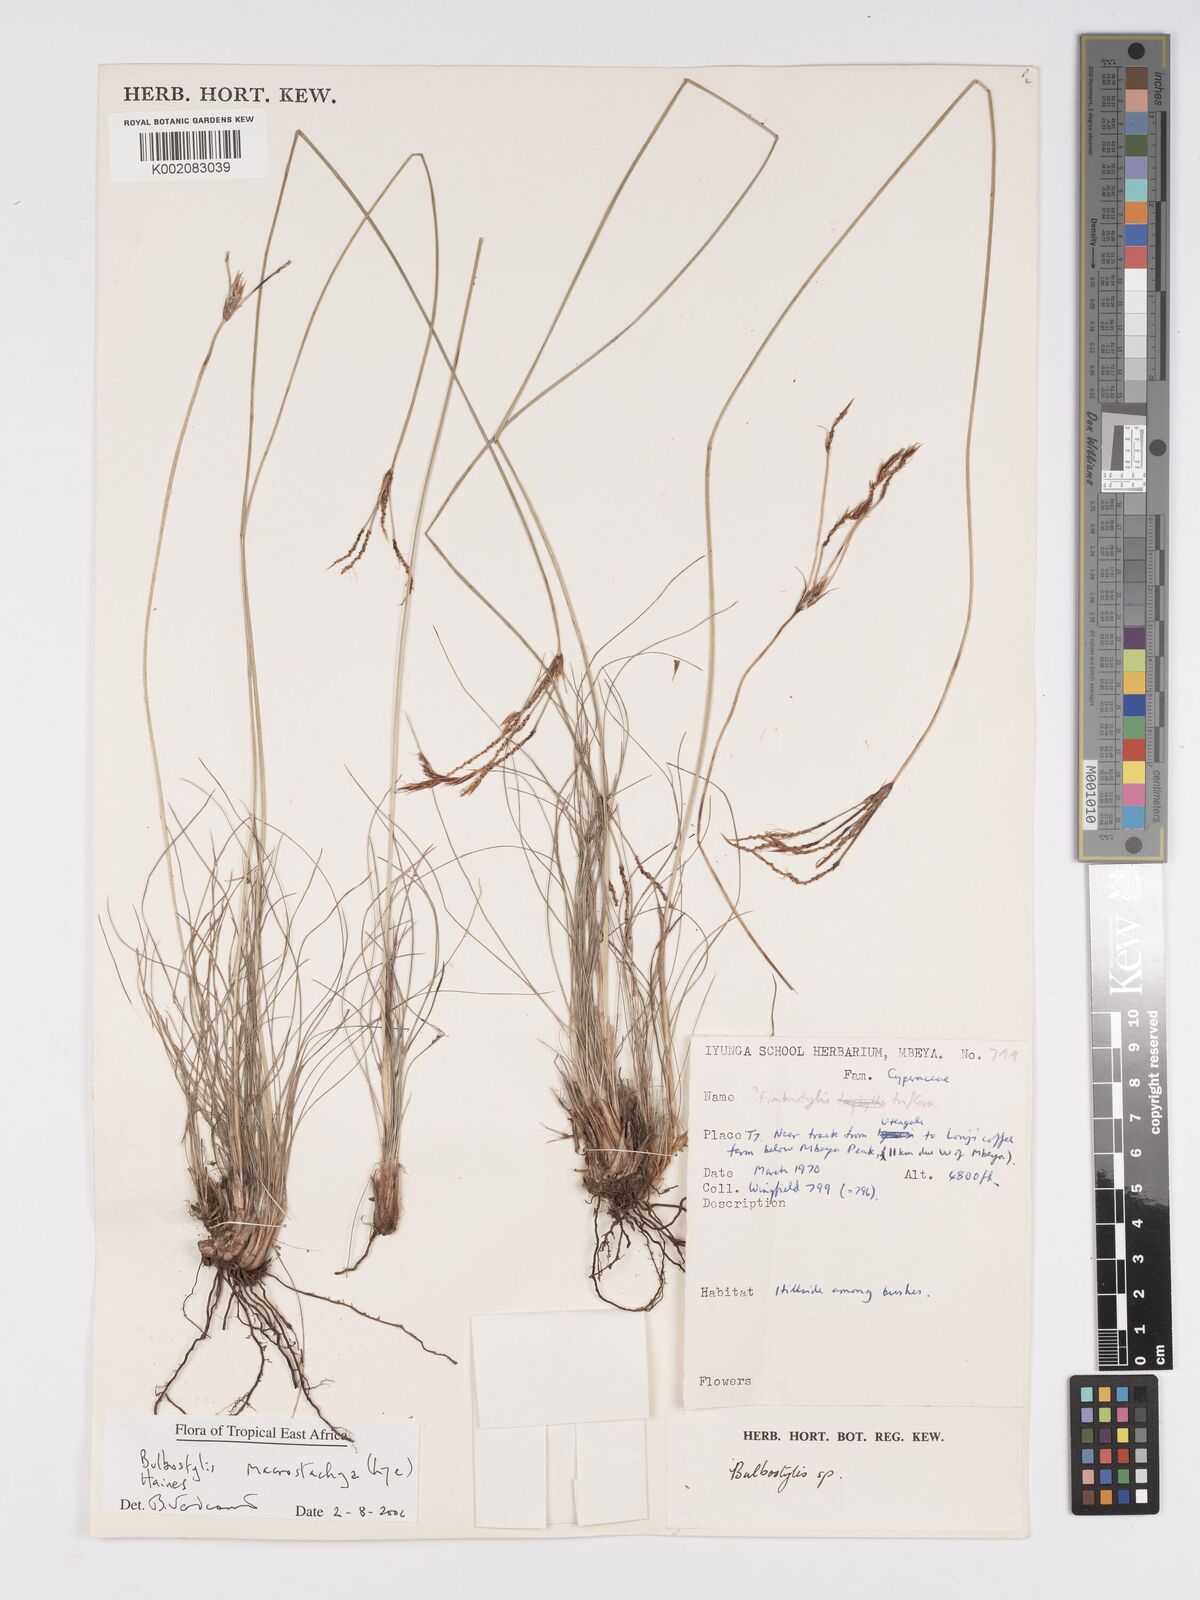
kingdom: Plantae
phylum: Tracheophyta
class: Liliopsida
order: Poales
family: Cyperaceae
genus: Bulbostylis
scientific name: Bulbostylis macrostachya
